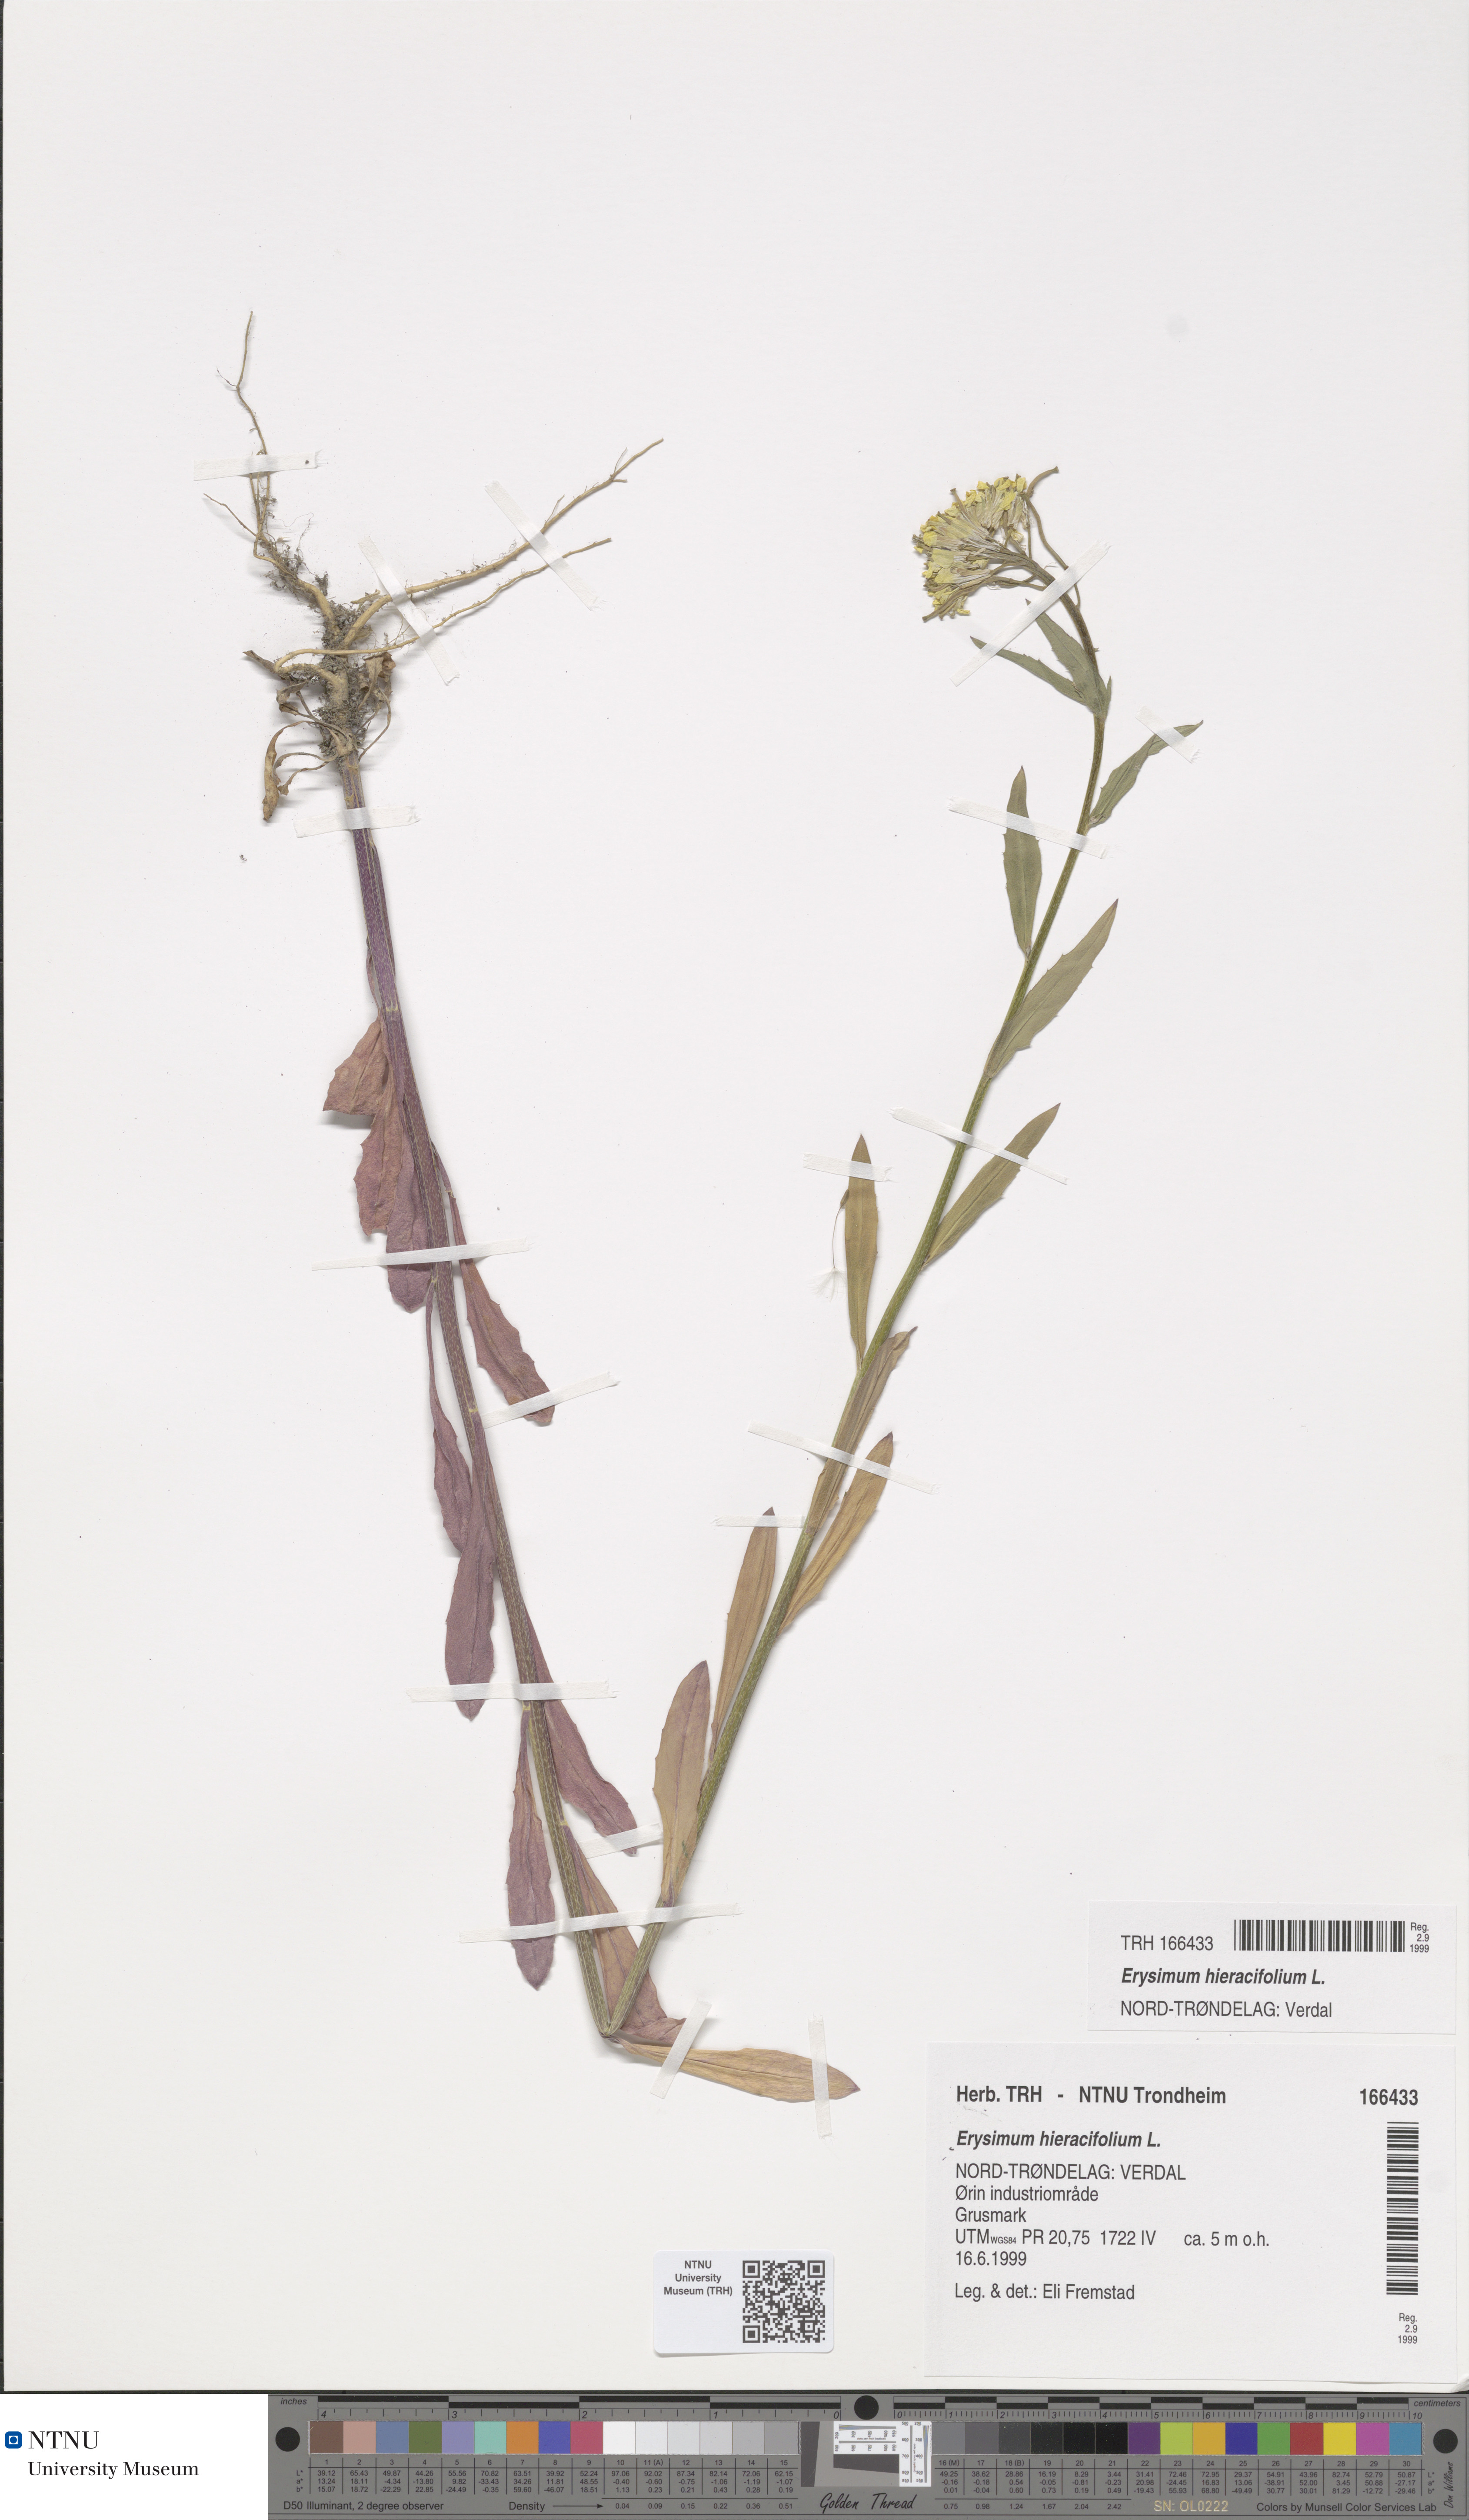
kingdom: Plantae
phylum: Tracheophyta
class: Magnoliopsida
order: Brassicales
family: Brassicaceae
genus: Erysimum
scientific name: Erysimum virgatum
